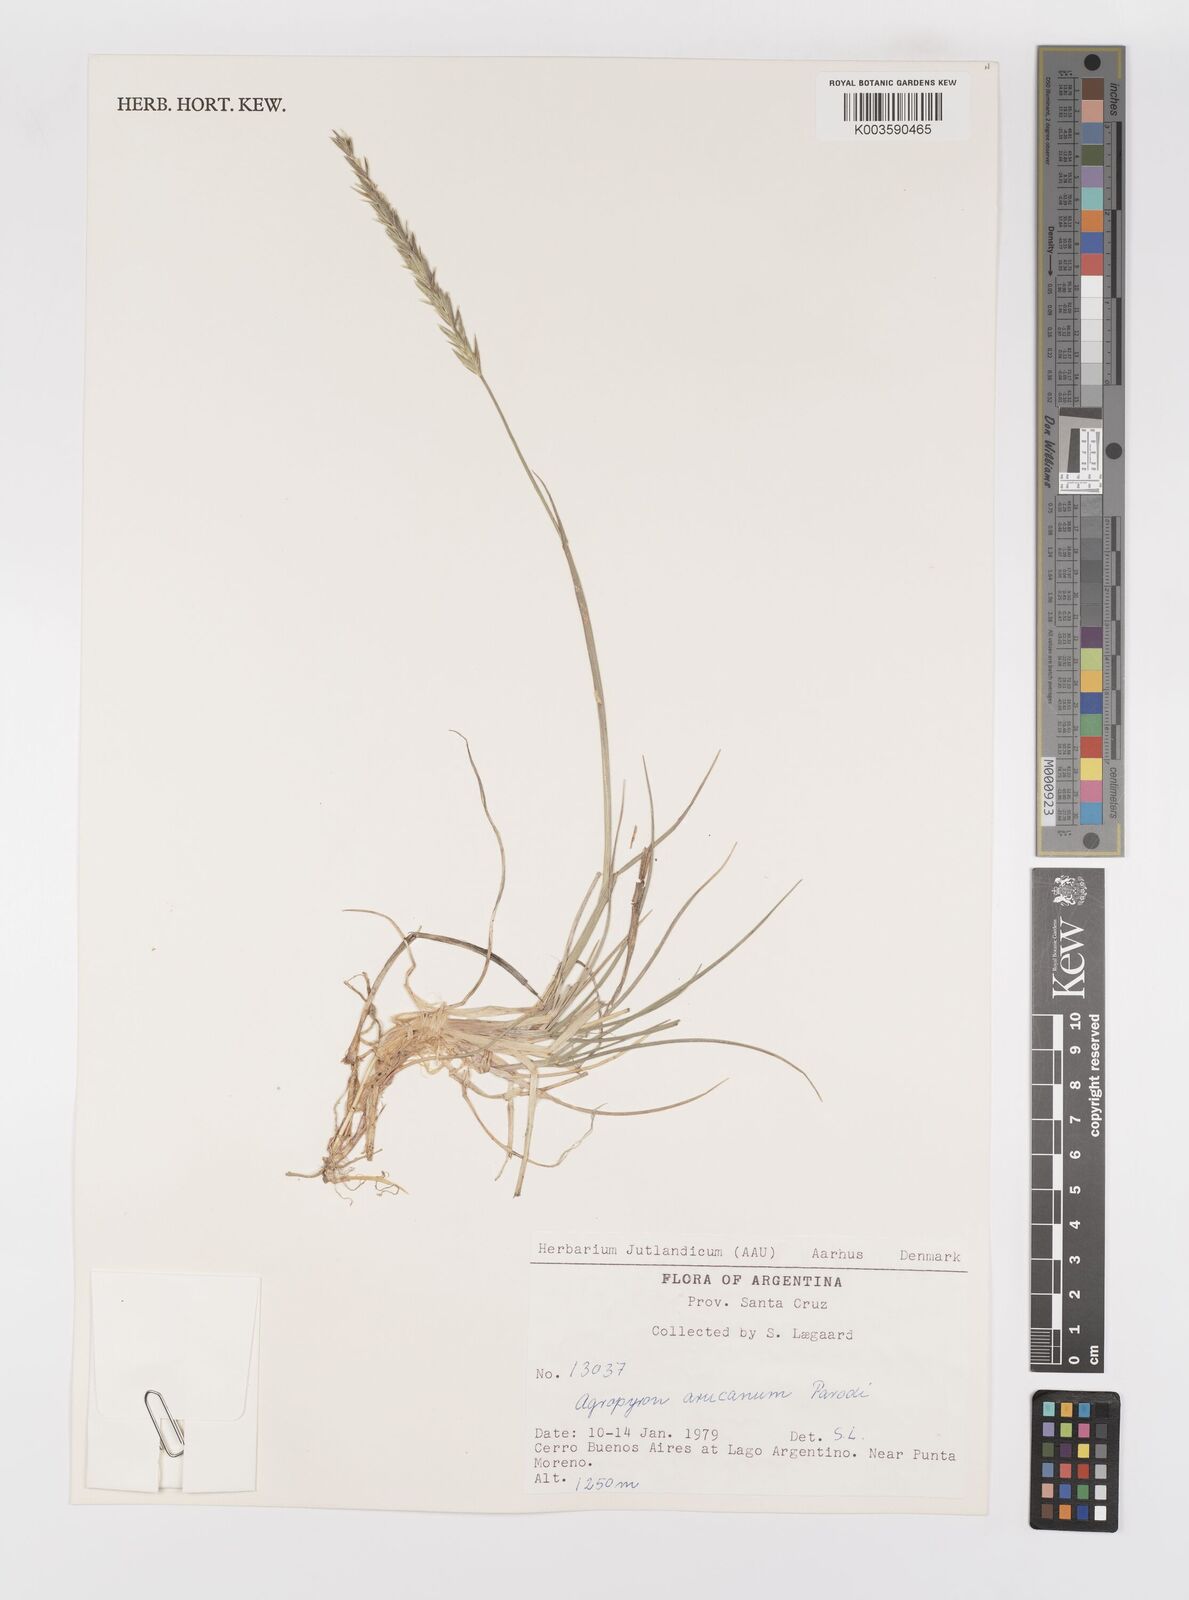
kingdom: Plantae
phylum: Tracheophyta
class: Liliopsida
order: Poales
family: Poaceae
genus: Elymus
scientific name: Elymus magellanicus
